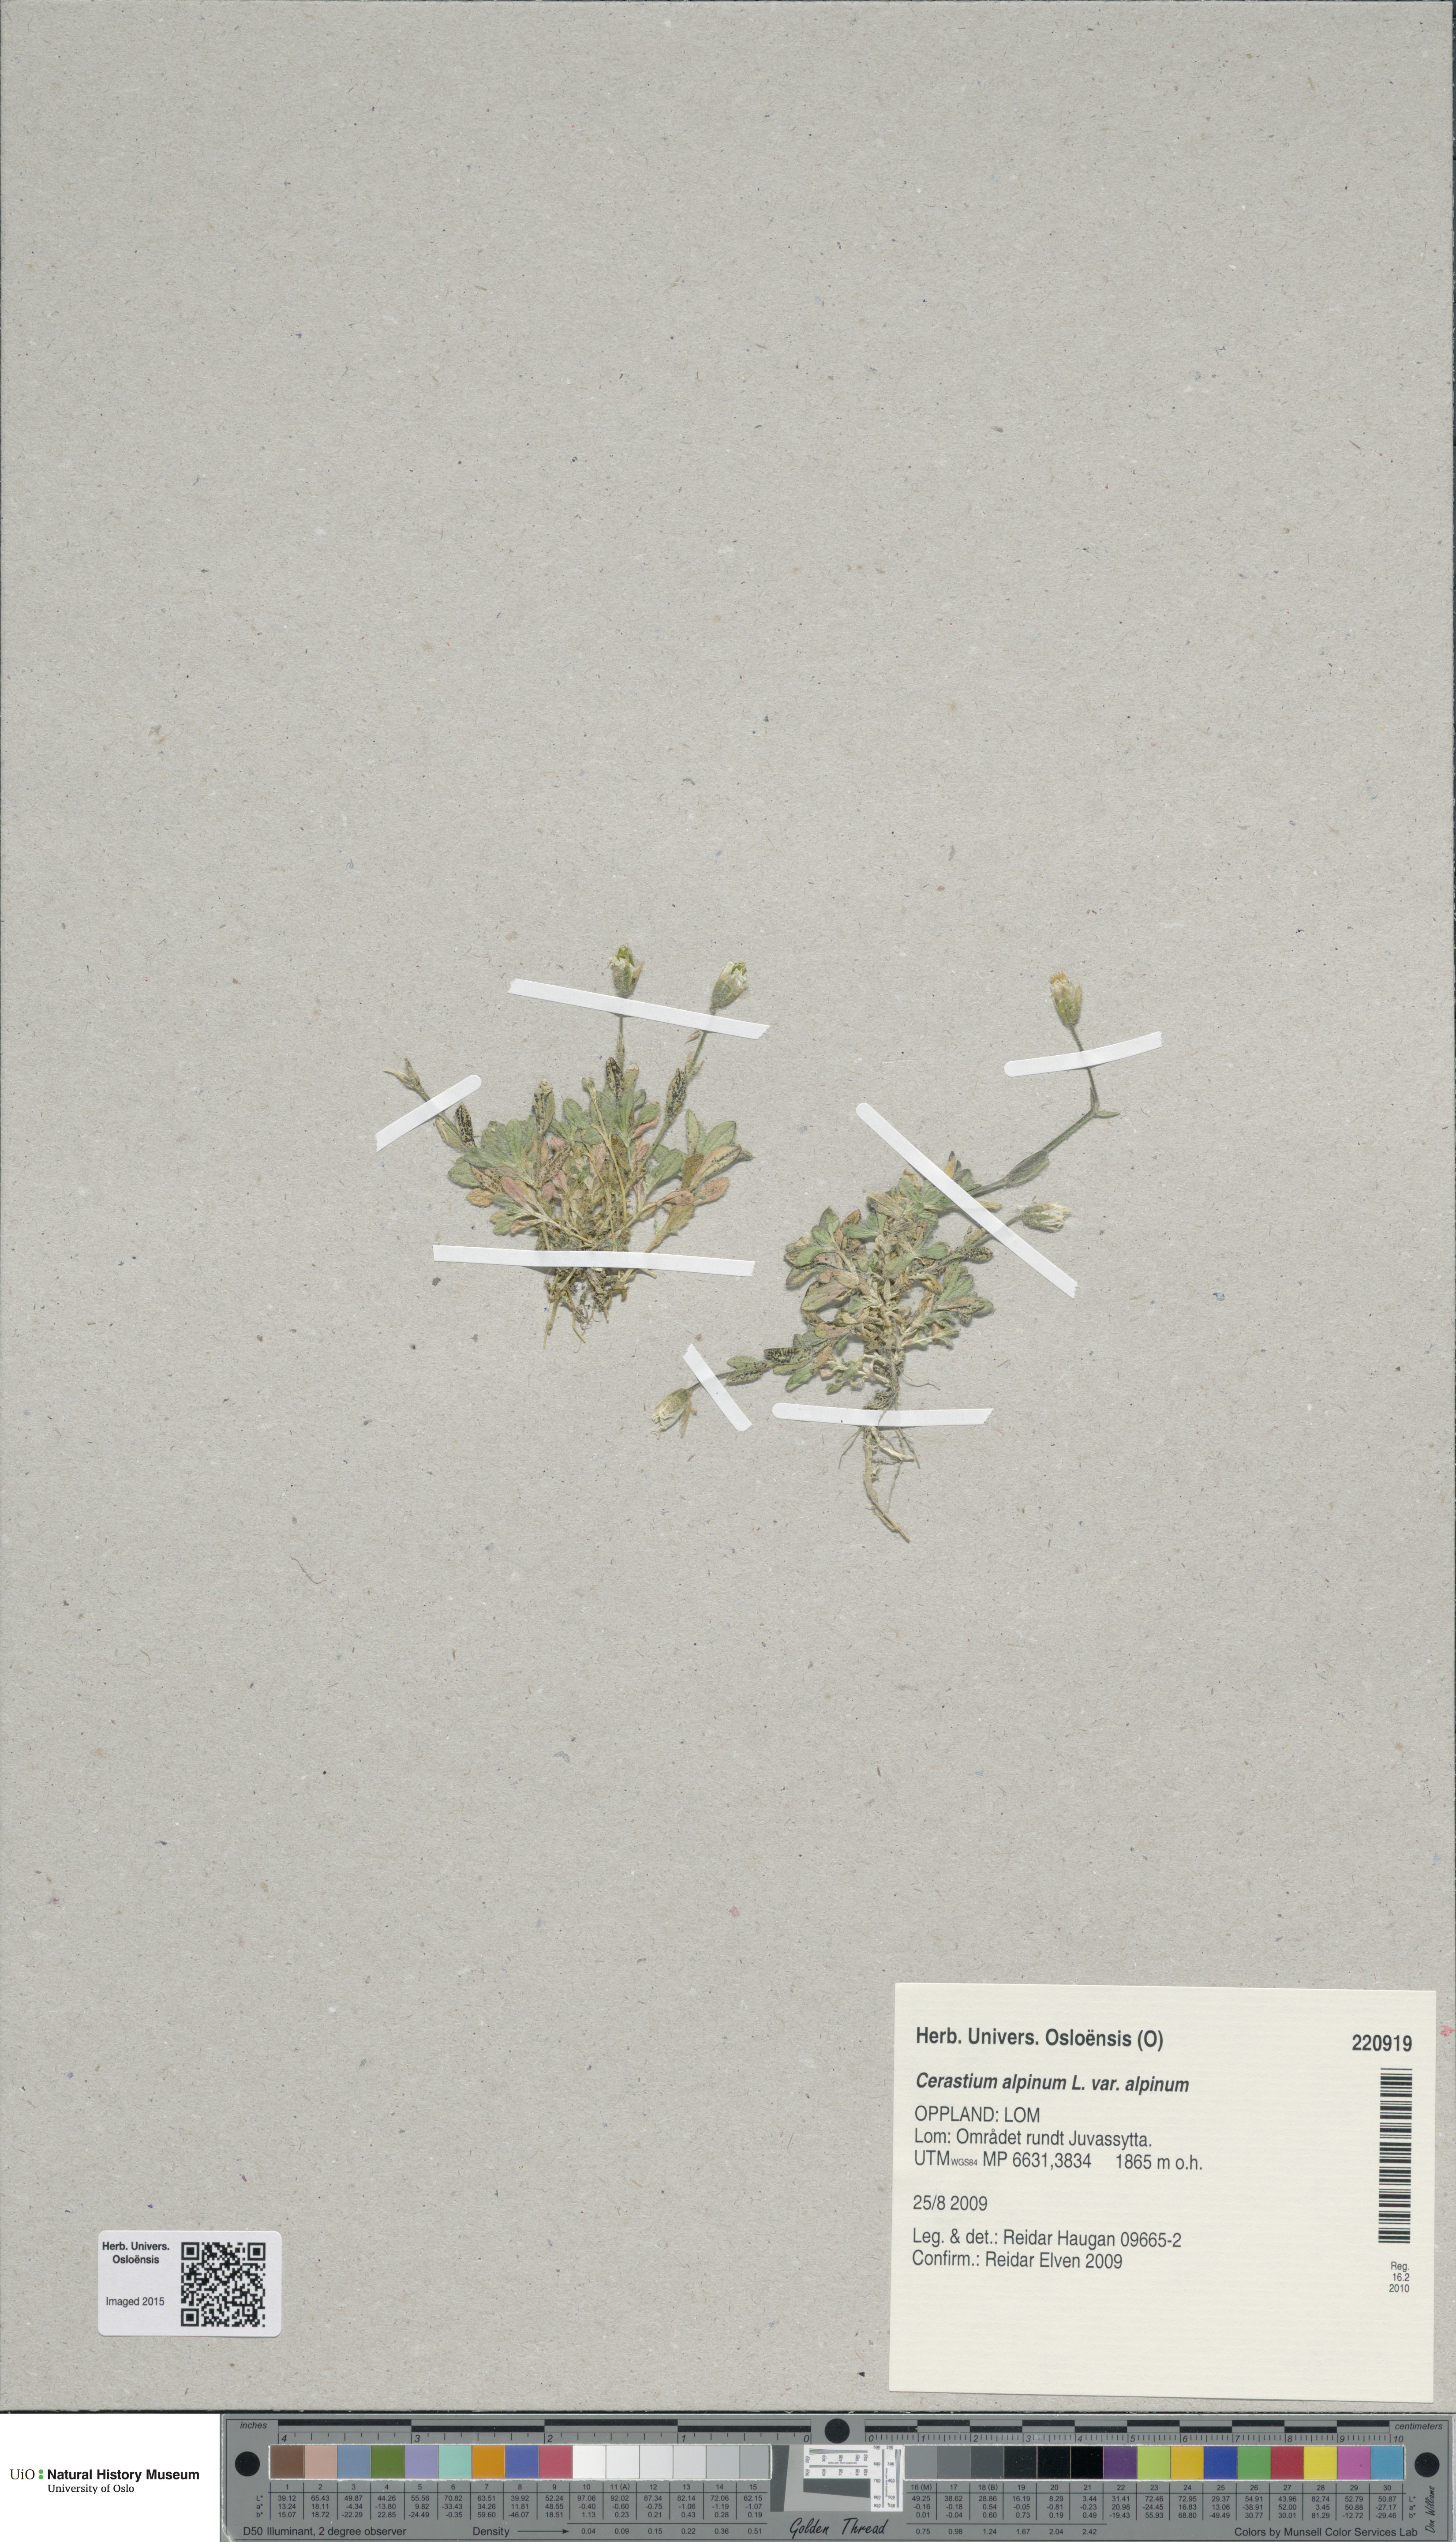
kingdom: Plantae
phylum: Tracheophyta
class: Magnoliopsida
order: Caryophyllales
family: Caryophyllaceae
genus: Cerastium
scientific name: Cerastium alpinum
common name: Alpine mouse-ear
